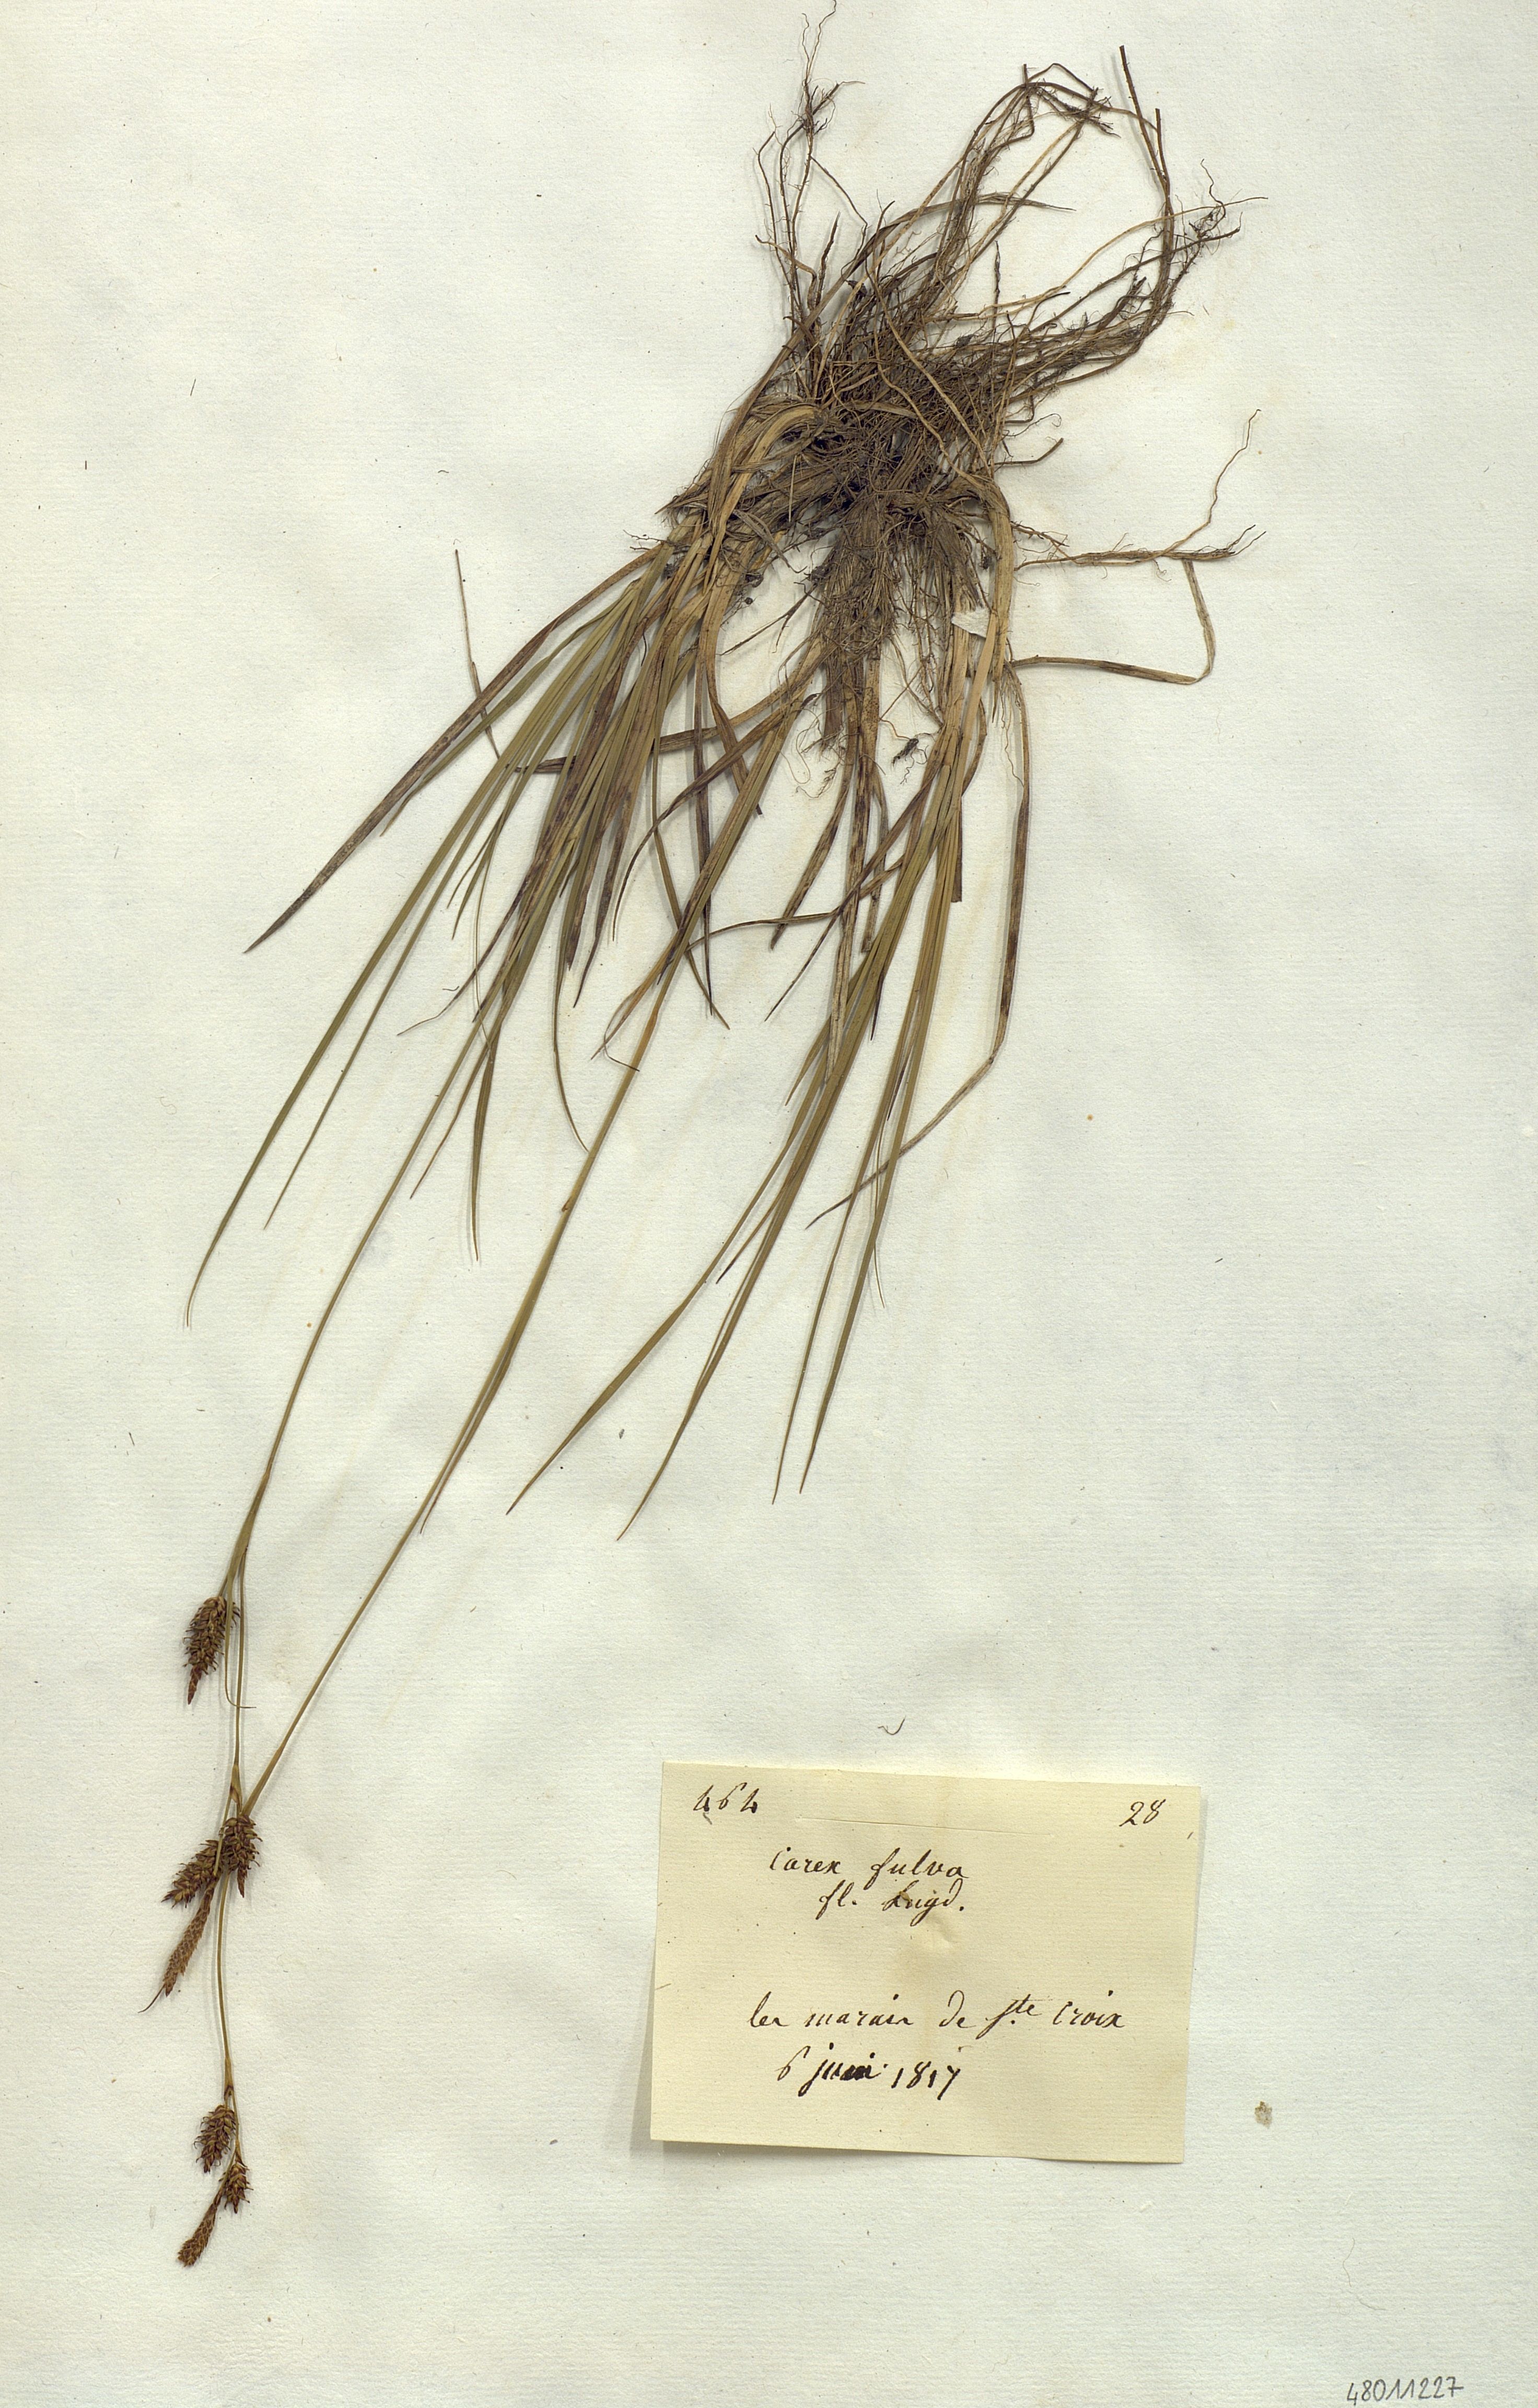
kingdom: Plantae
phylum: Tracheophyta
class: Liliopsida
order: Poales
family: Cyperaceae
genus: Carex
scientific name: Carex fulva
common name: Leutz's sedge
